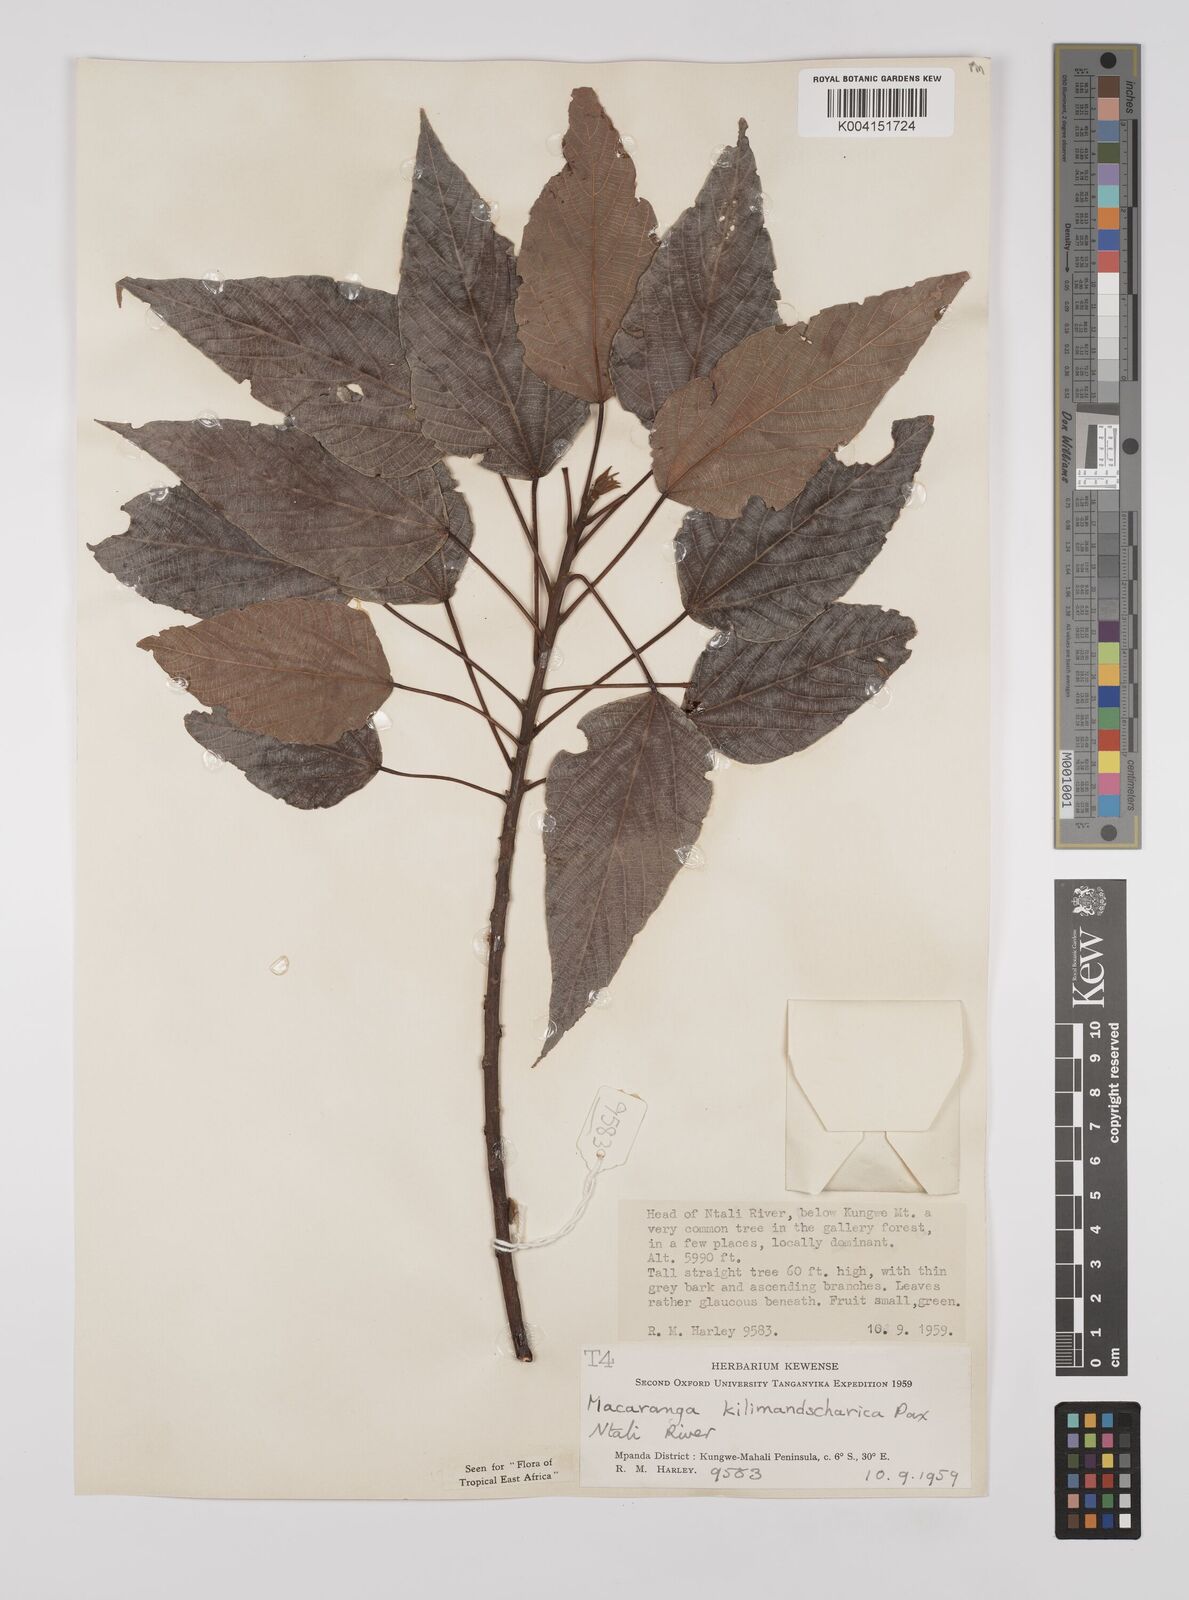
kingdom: Plantae
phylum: Tracheophyta
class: Magnoliopsida
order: Malpighiales
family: Euphorbiaceae
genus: Macaranga
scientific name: Macaranga kilimandscharica
